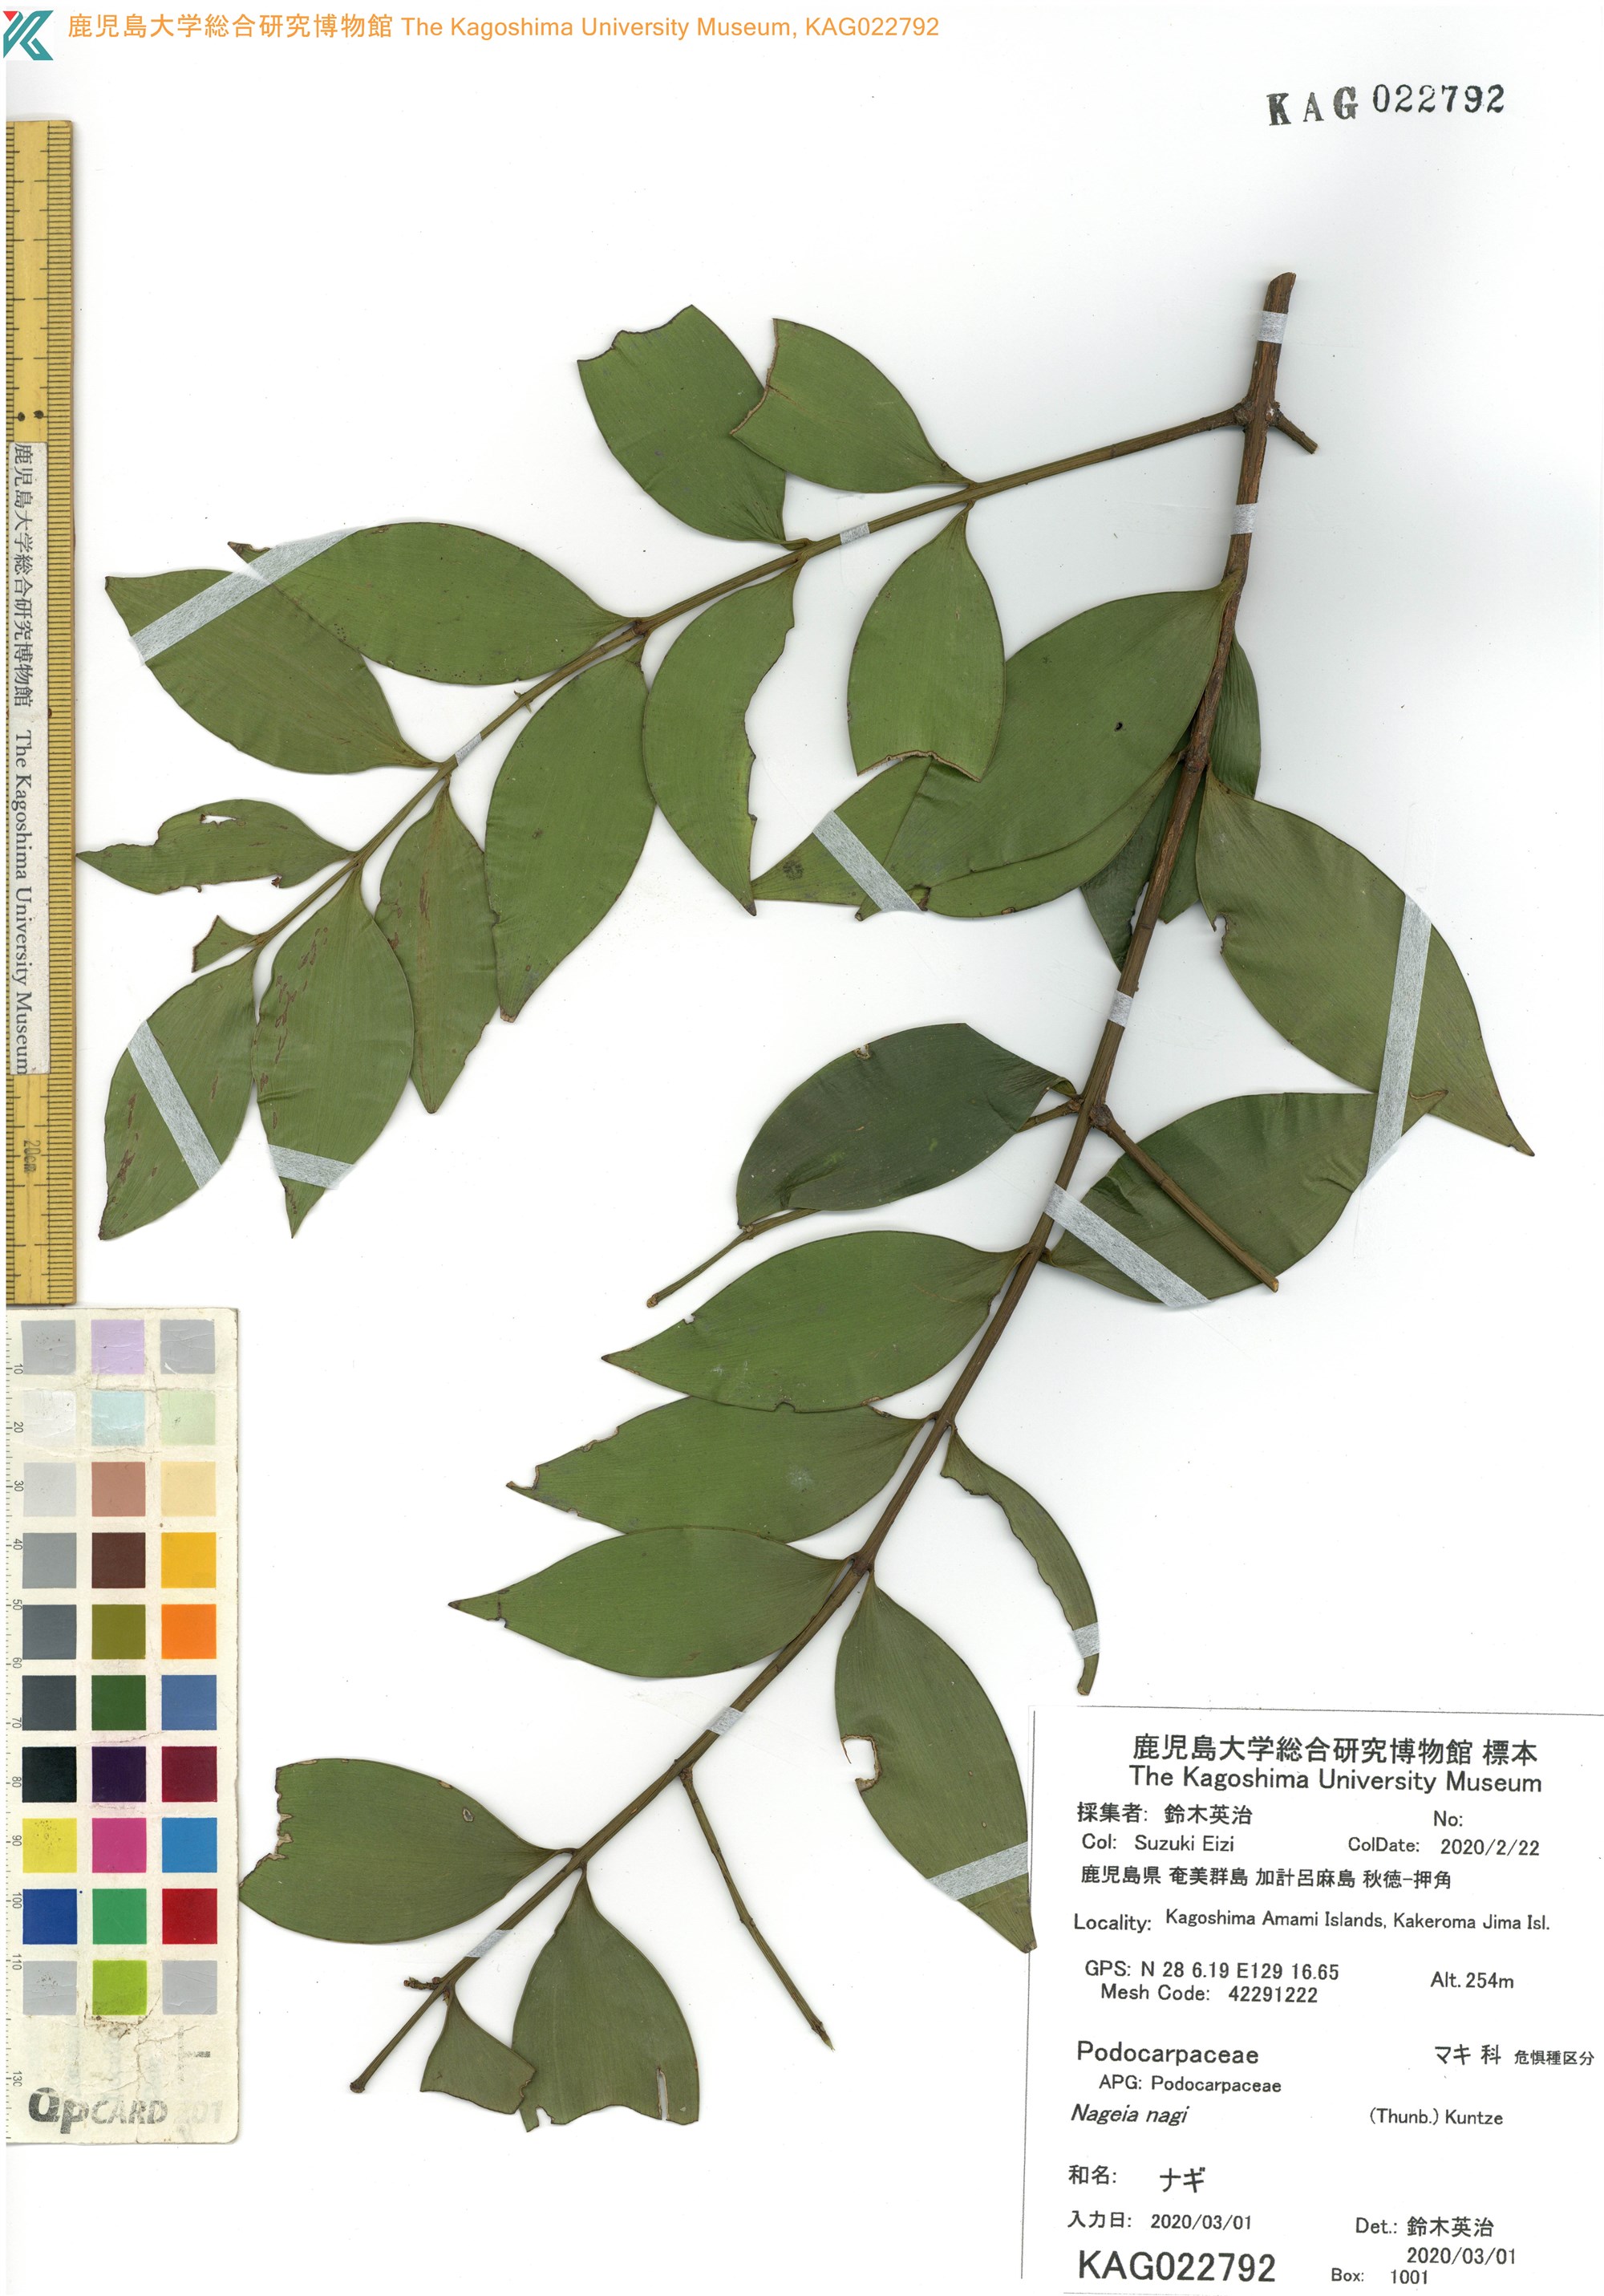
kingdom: Plantae
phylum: Tracheophyta
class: Pinopsida
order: Pinales
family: Podocarpaceae
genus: Nageia
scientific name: Nageia nagi
